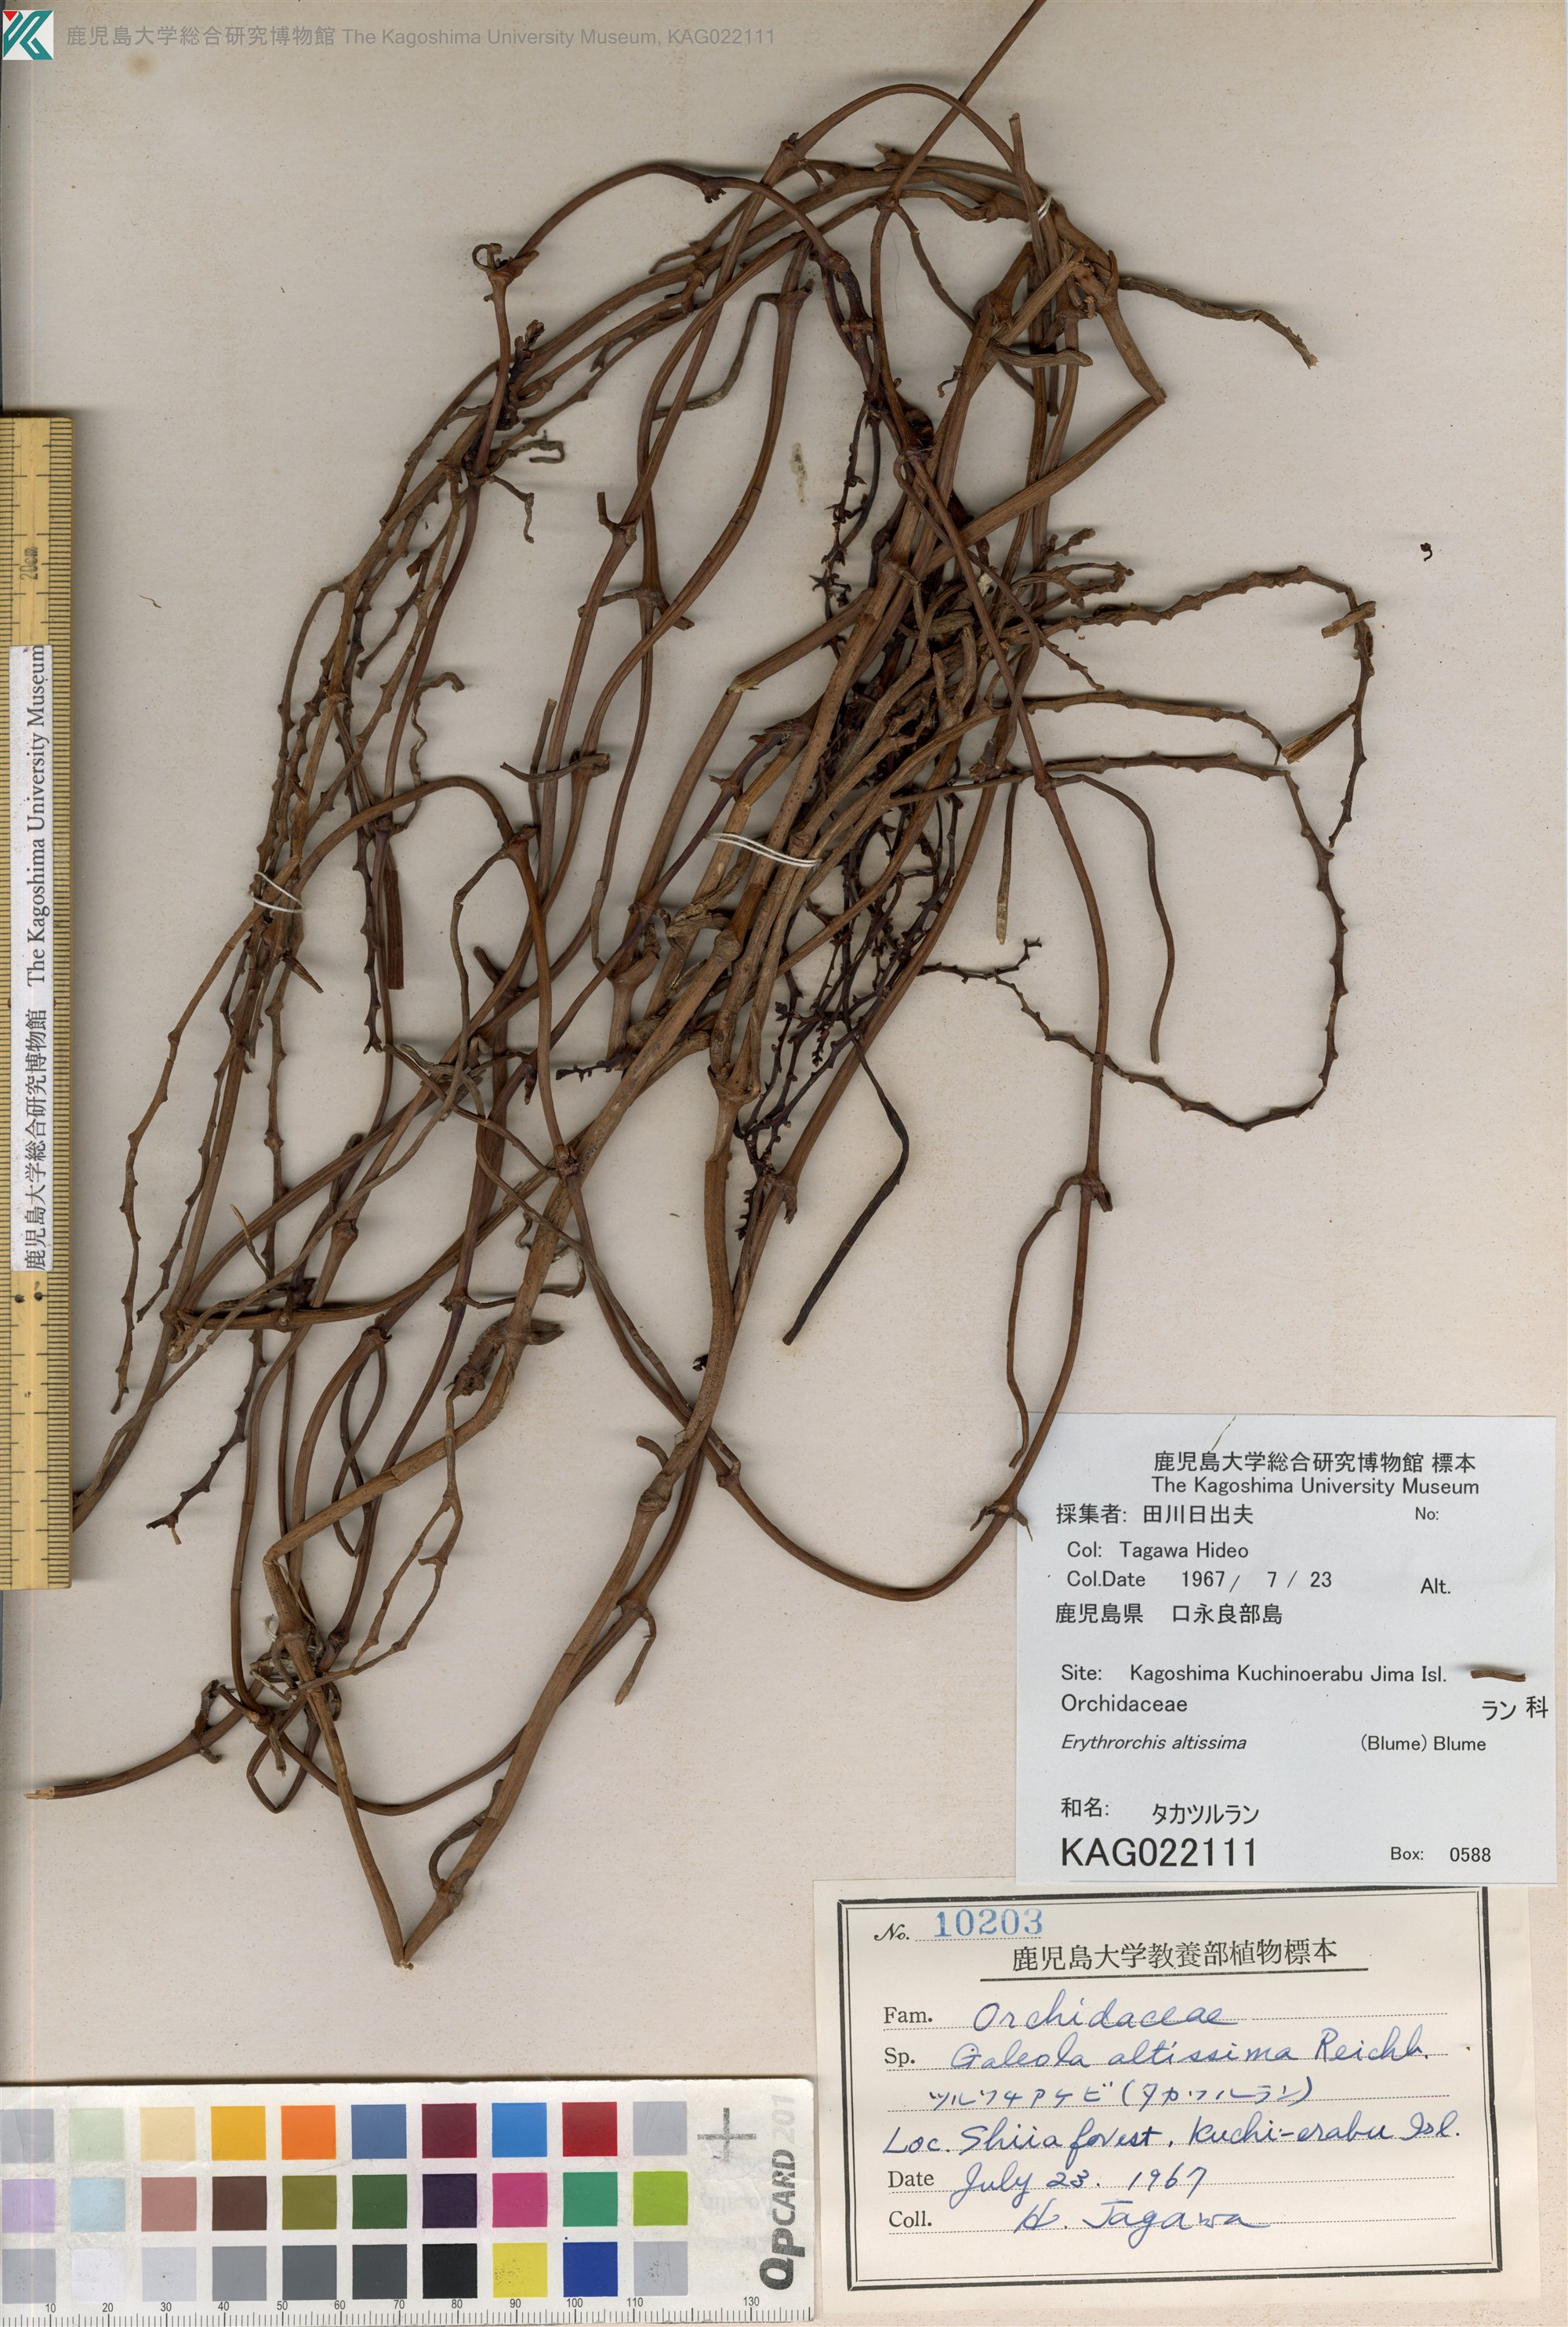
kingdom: Plantae
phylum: Tracheophyta
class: Liliopsida
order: Asparagales
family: Orchidaceae
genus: Erythrorchis
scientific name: Erythrorchis altissima
